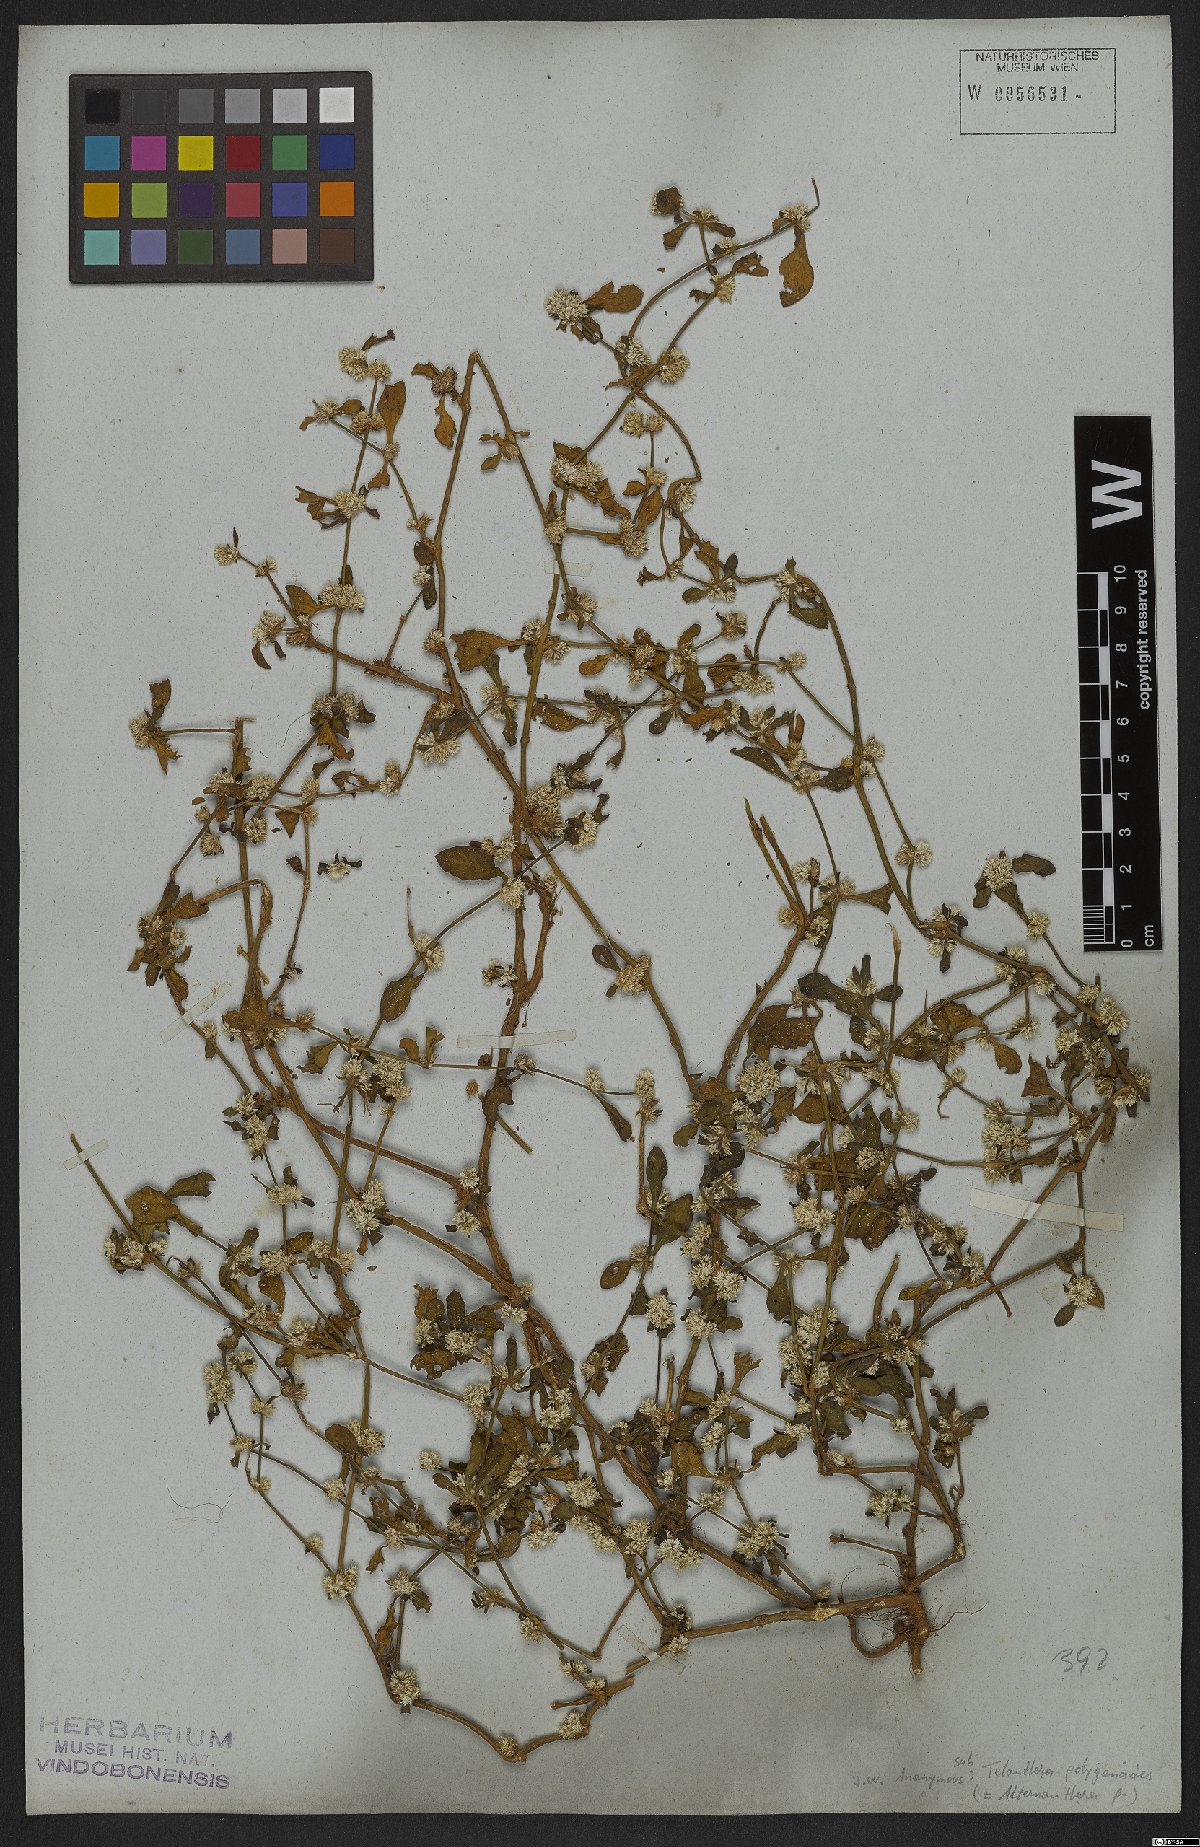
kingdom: Plantae
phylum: Tracheophyta
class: Magnoliopsida
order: Caryophyllales
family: Amaranthaceae
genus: Alternanthera
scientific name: Alternanthera sessilis
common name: Sessile joyweed
